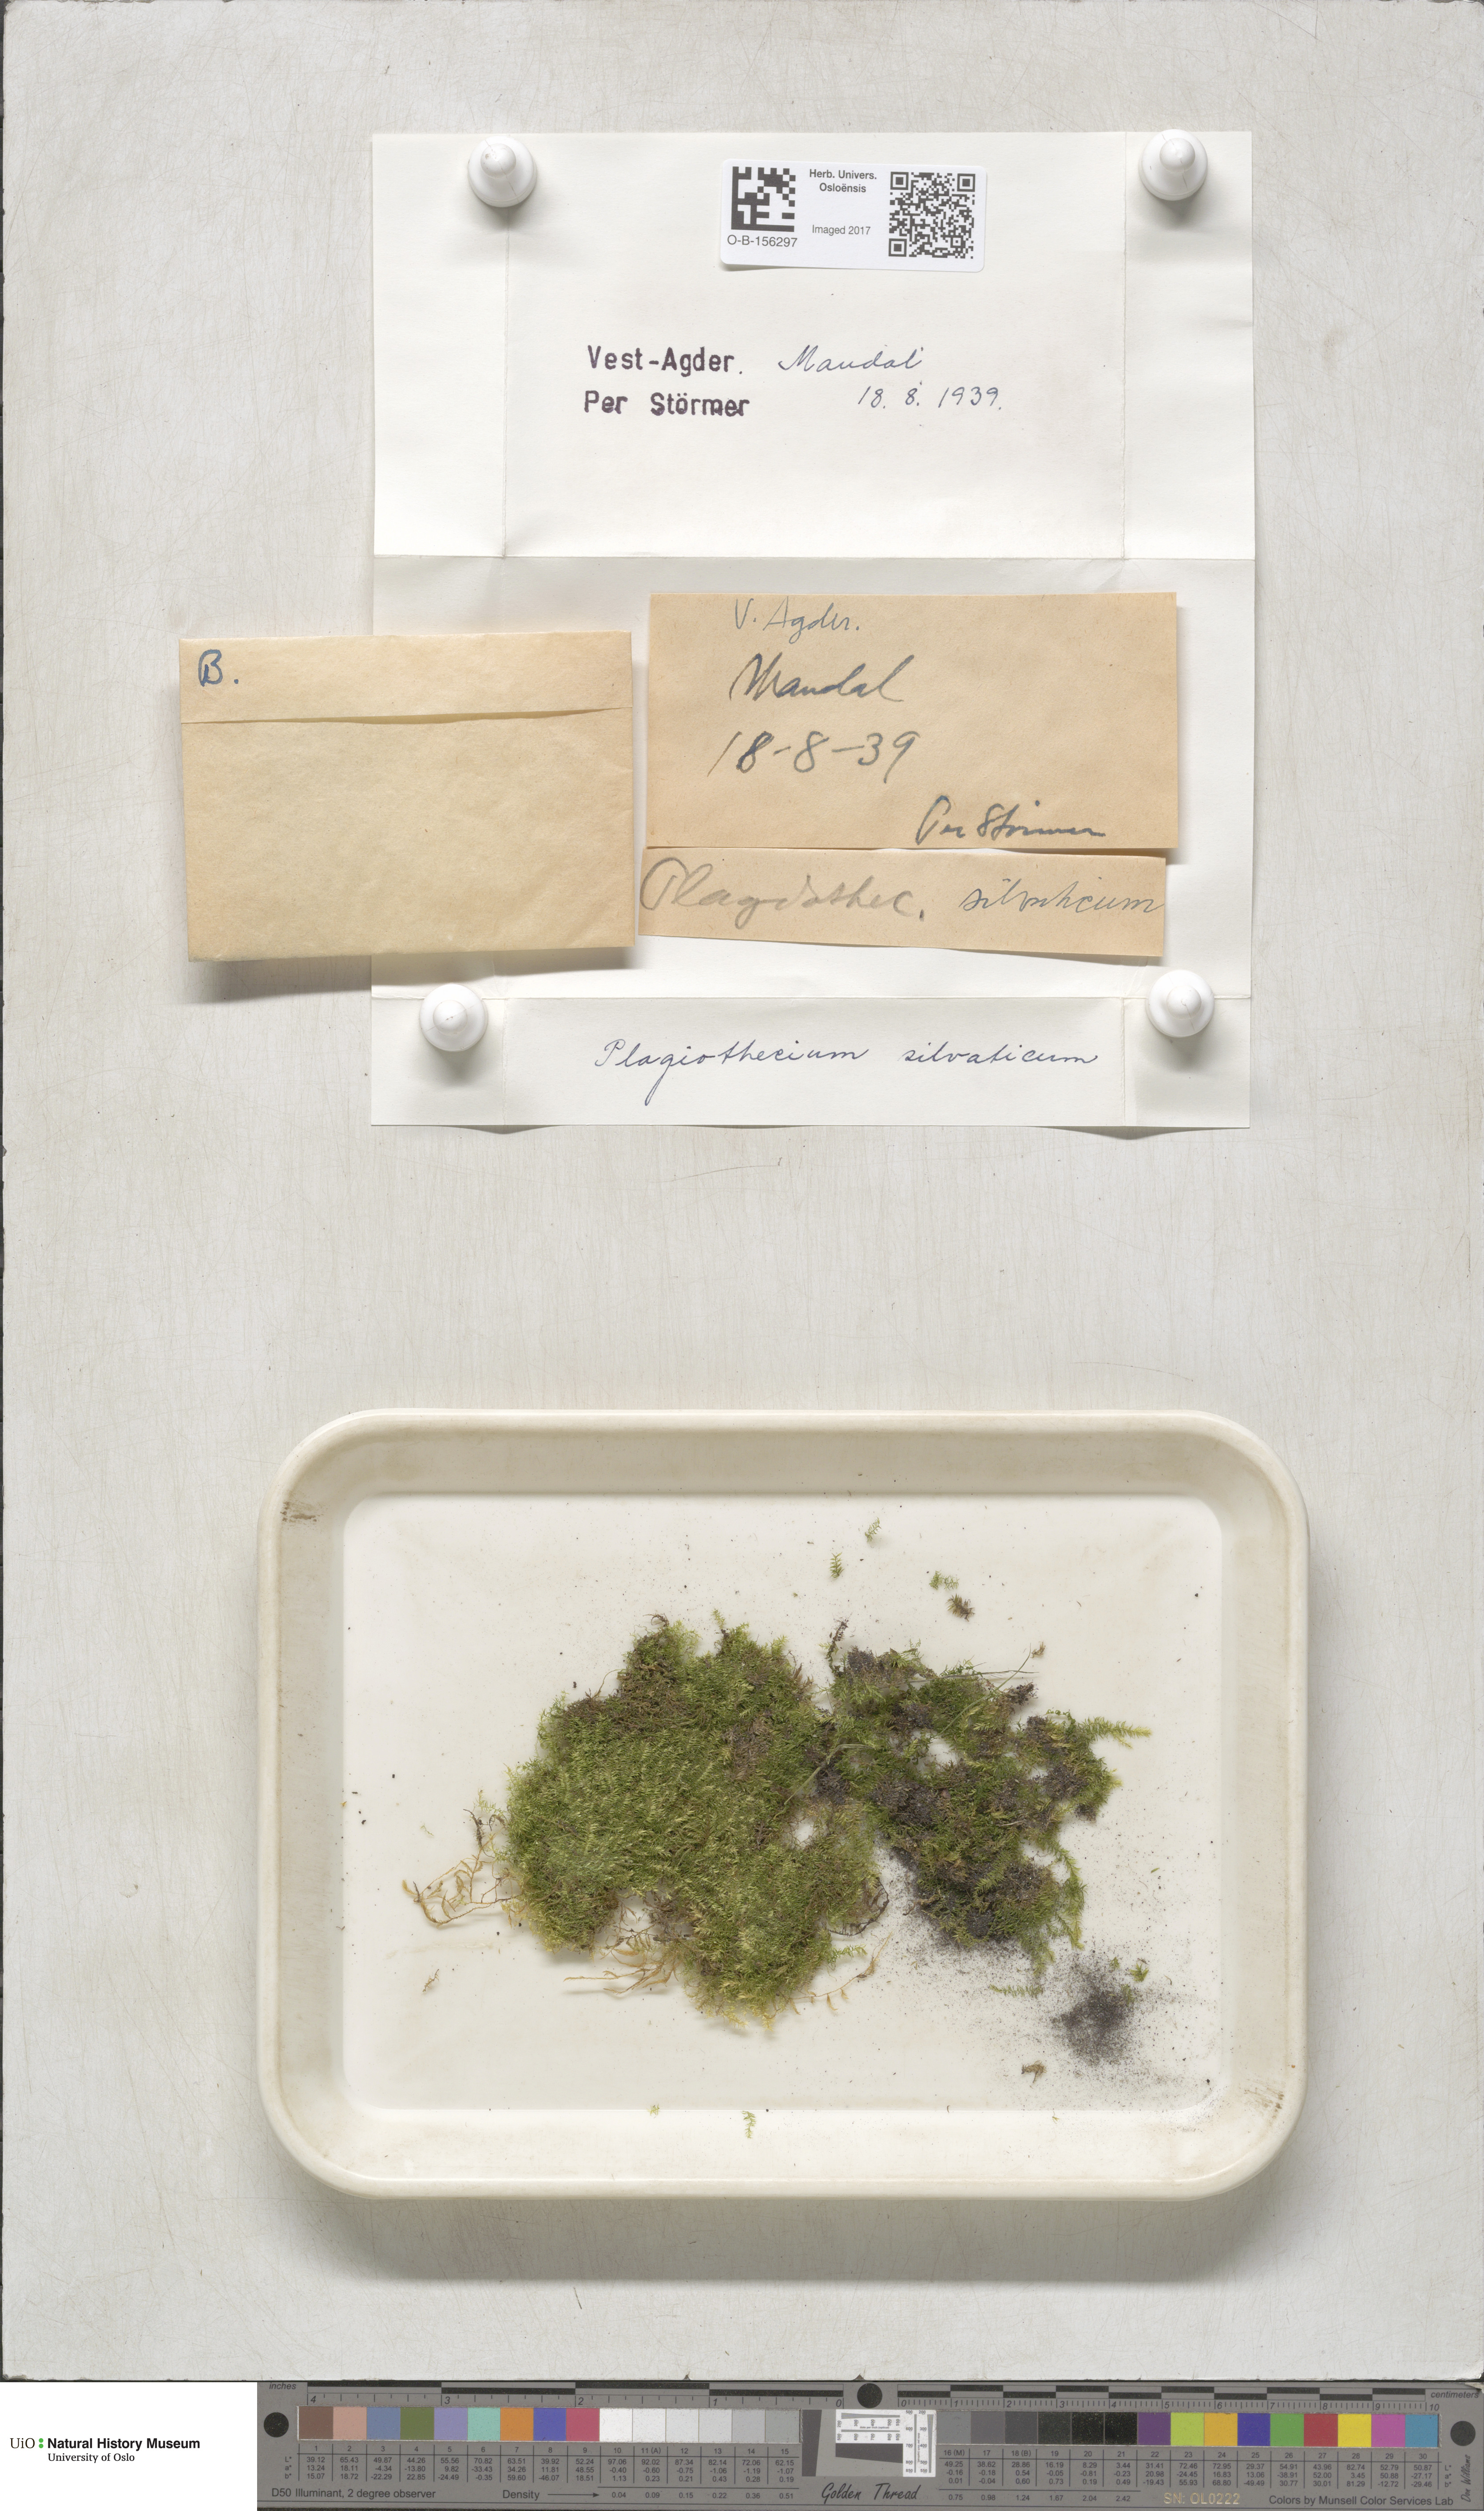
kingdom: Plantae
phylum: Bryophyta
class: Bryopsida
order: Hypnales
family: Plagiotheciaceae
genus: Plagiothecium
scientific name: Plagiothecium nemorale
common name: Woodsy silk-moss
